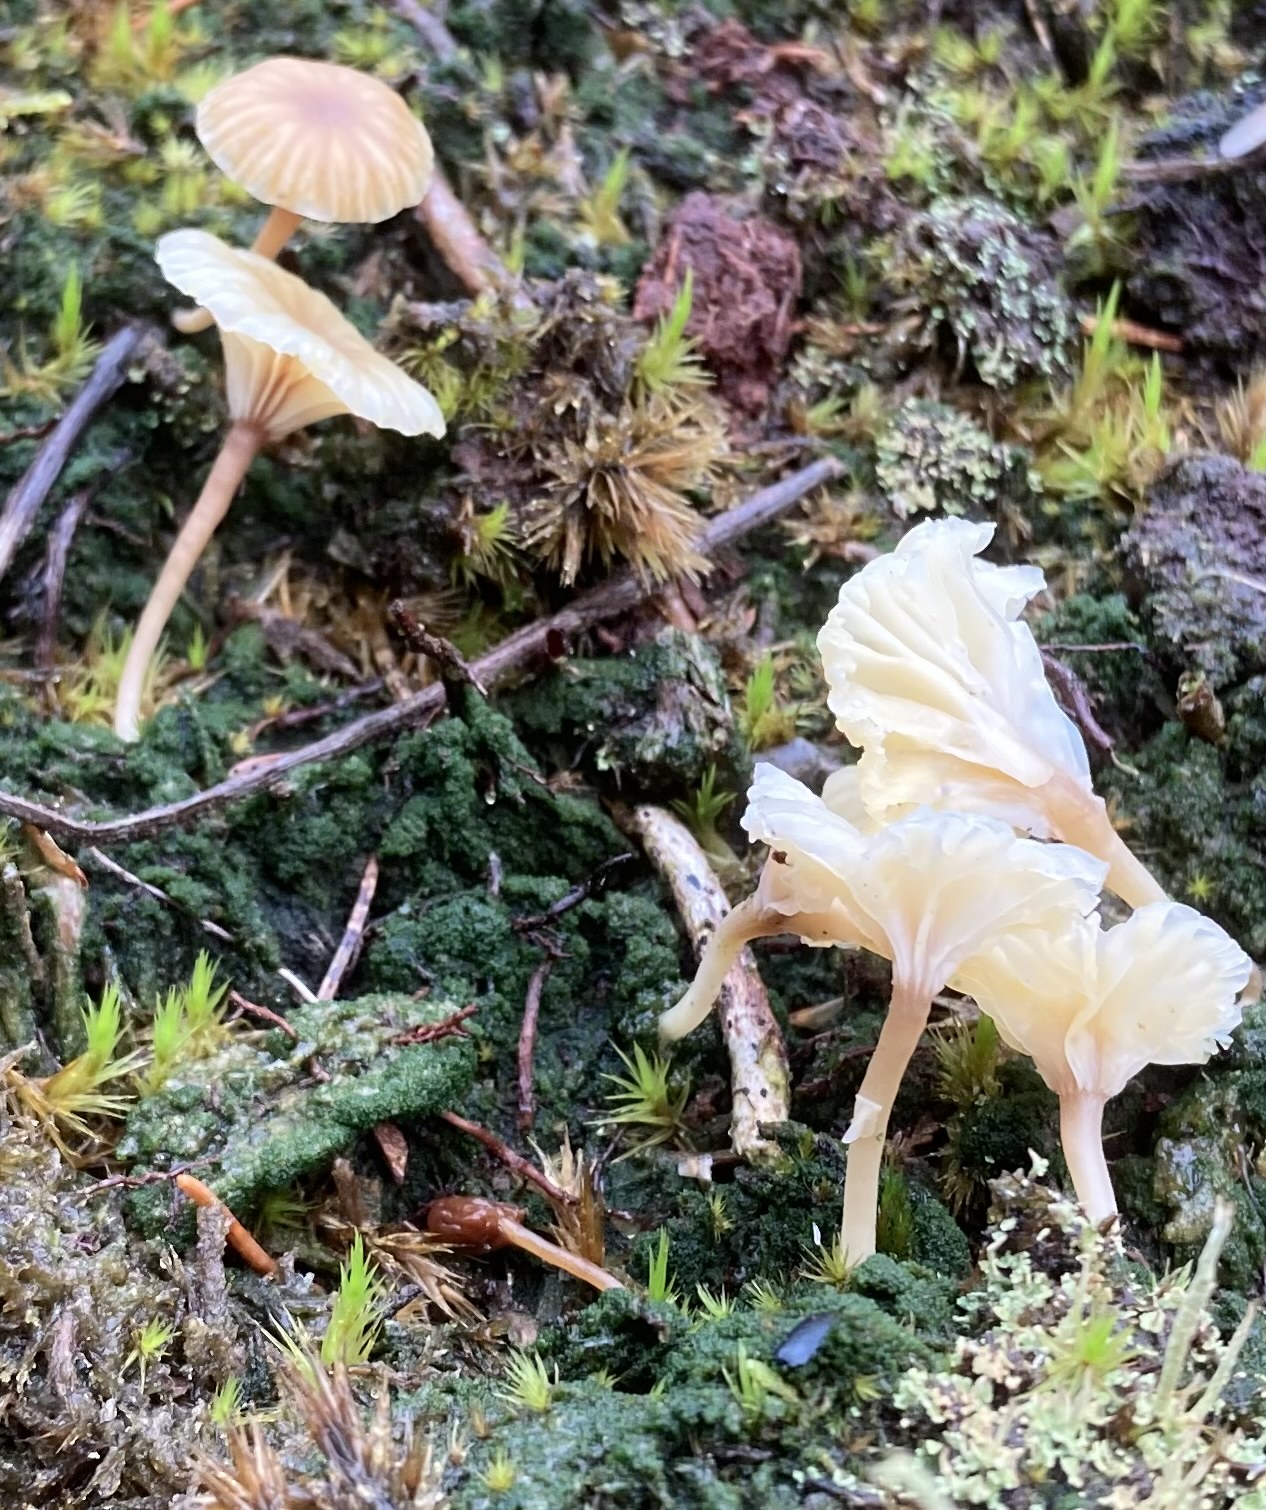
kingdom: Fungi
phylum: Basidiomycota
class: Agaricomycetes
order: Agaricales
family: Hygrophoraceae
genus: Lichenomphalia
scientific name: Lichenomphalia umbellifera
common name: tørve-lavhat
